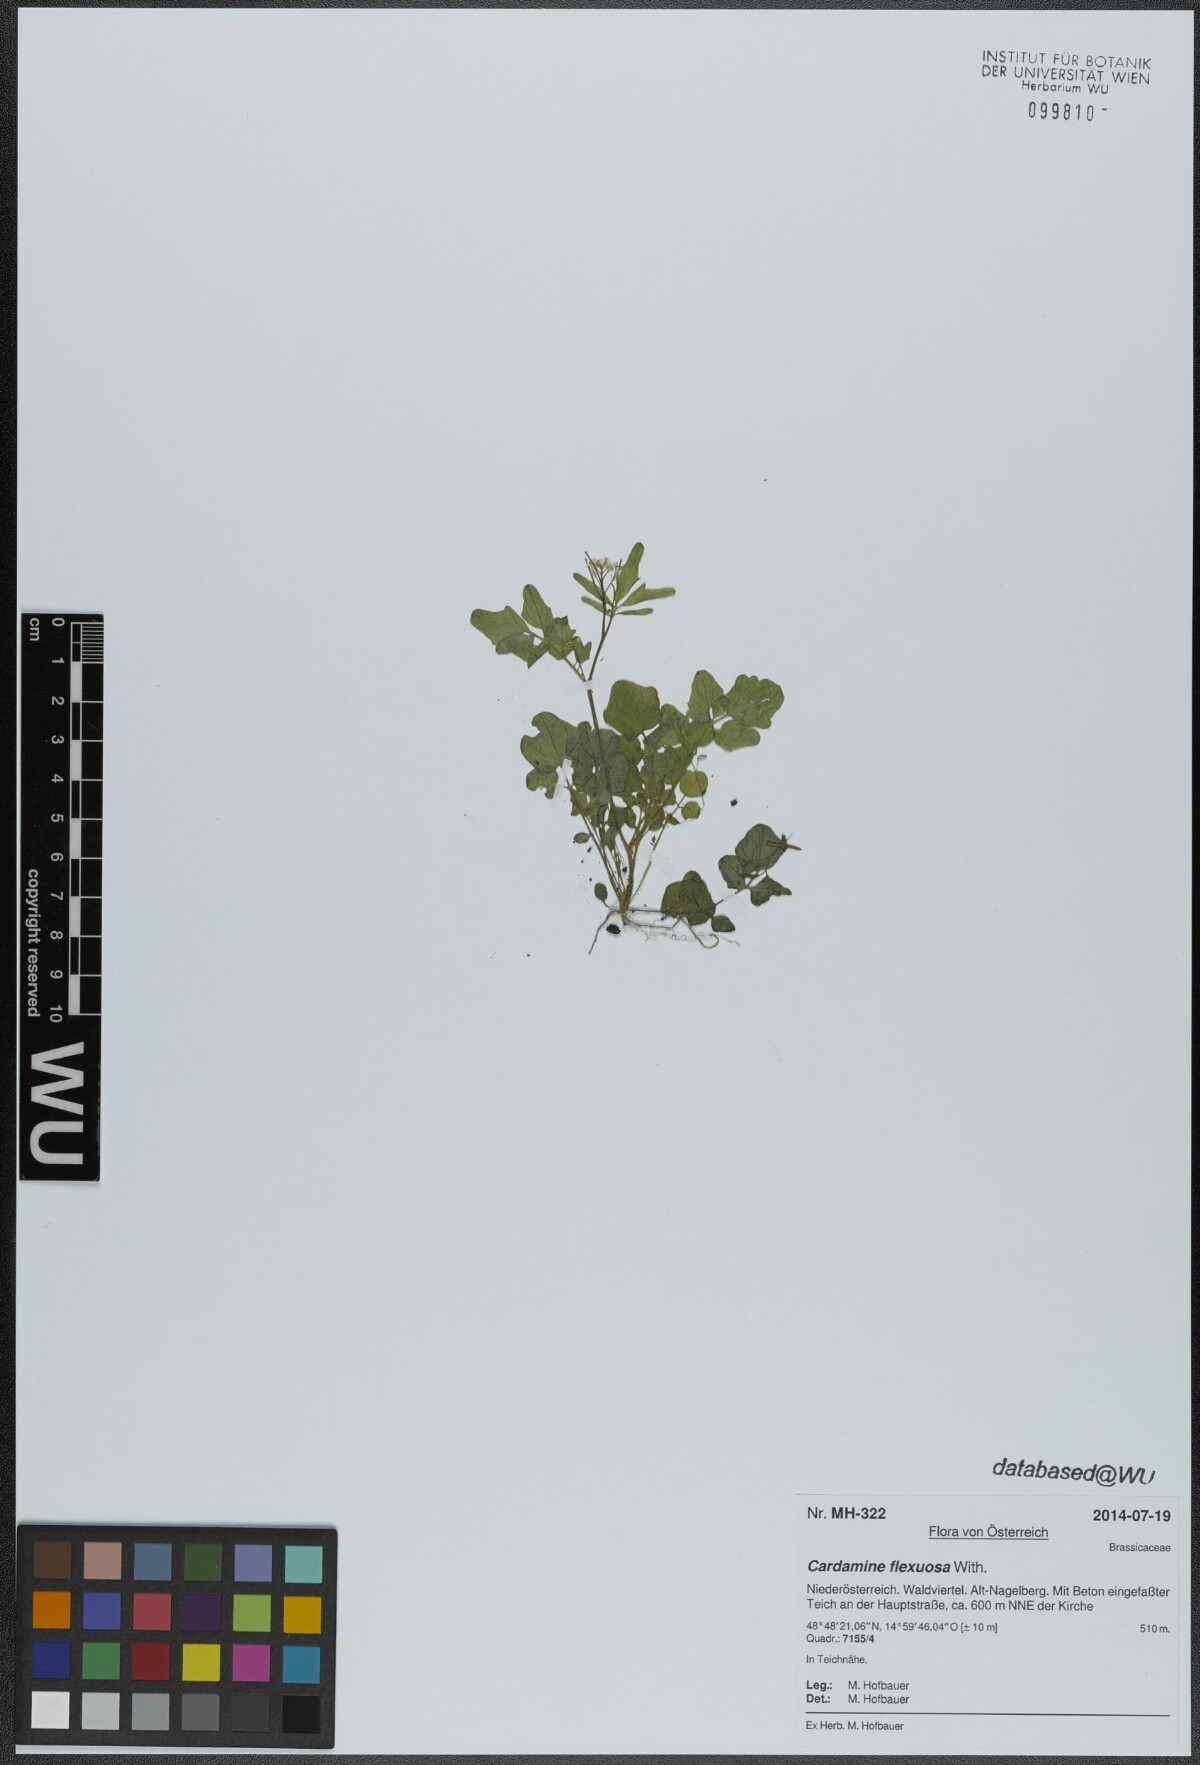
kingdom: Plantae
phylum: Tracheophyta
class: Magnoliopsida
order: Brassicales
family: Brassicaceae
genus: Cardamine
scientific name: Cardamine flexuosa
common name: Woodland bittercress
